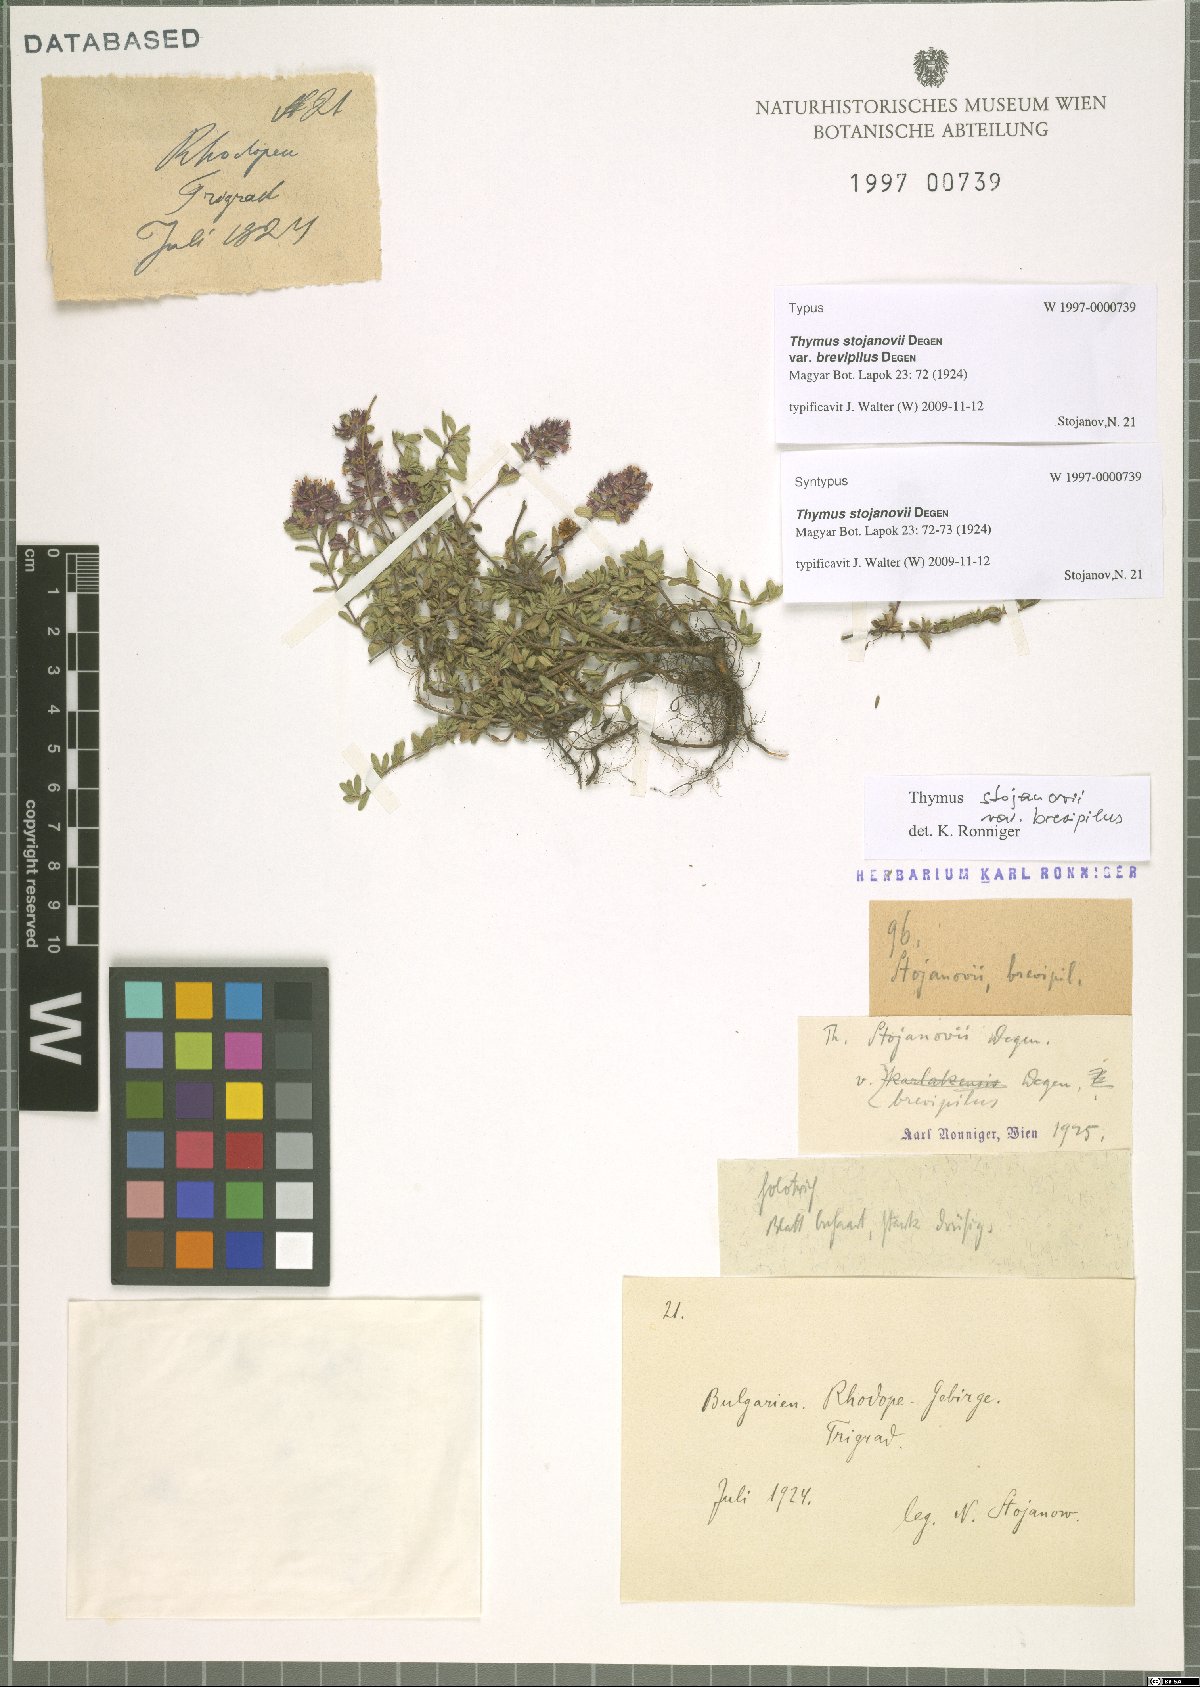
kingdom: Plantae
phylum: Tracheophyta
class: Magnoliopsida
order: Lamiales
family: Lamiaceae
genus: Thymus
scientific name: Thymus stojanovii
